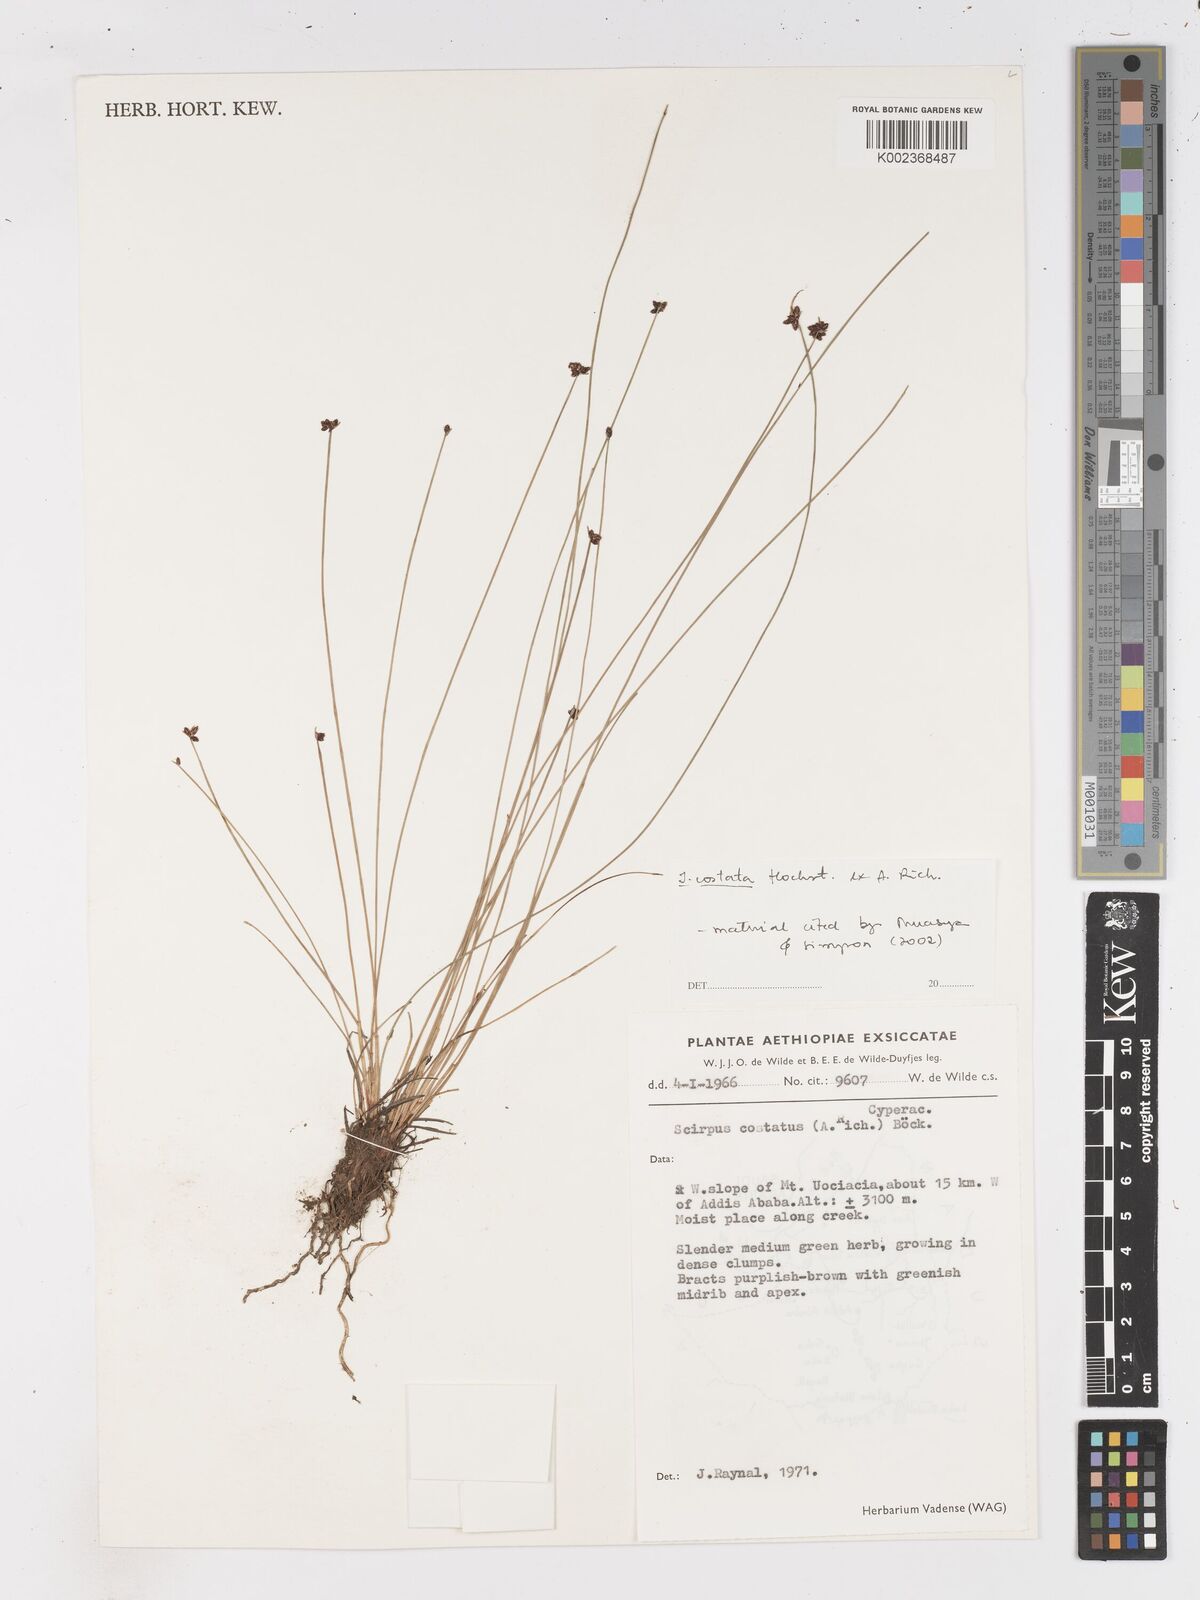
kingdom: Plantae
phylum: Tracheophyta
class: Liliopsida
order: Poales
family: Cyperaceae
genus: Isolepis
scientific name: Isolepis costata
